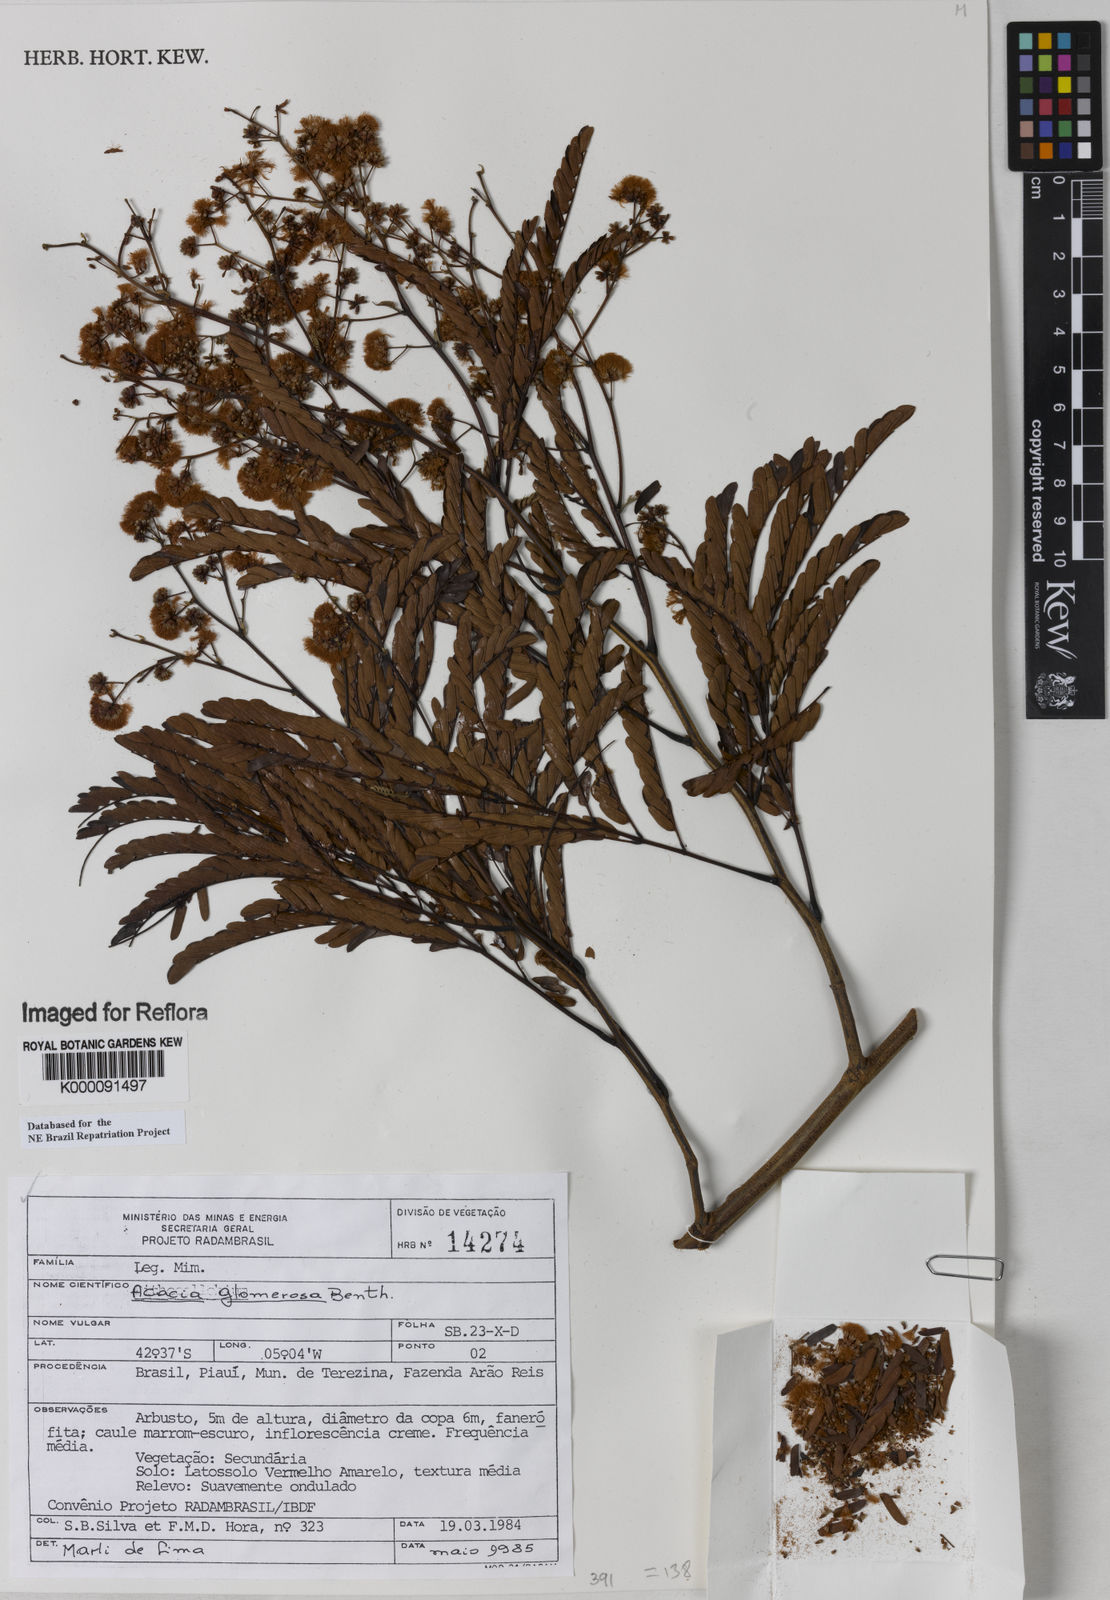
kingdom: Plantae
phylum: Tracheophyta
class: Magnoliopsida
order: Fabales
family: Fabaceae
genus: Senegalia
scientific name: Senegalia polyphylla
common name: White-tamarind
